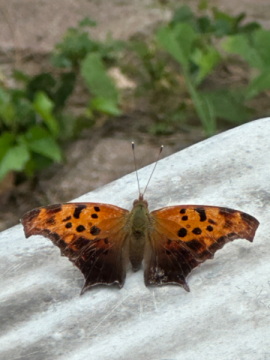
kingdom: Animalia
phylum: Arthropoda
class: Insecta
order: Lepidoptera
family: Nymphalidae
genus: Polygonia
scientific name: Polygonia interrogationis
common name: Question Mark
